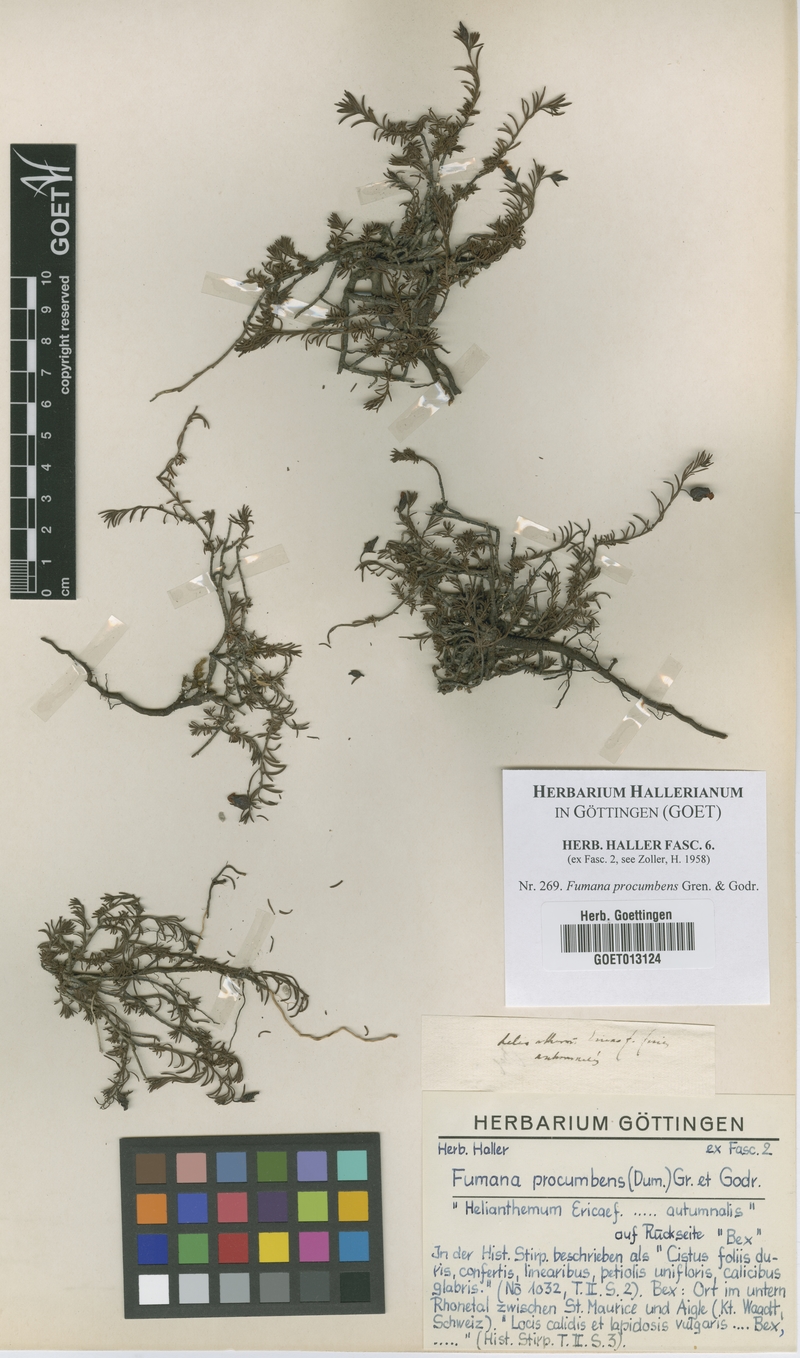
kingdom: Plantae
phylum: Tracheophyta
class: Magnoliopsida
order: Malvales
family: Cistaceae
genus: Fumana
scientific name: Fumana procumbens
